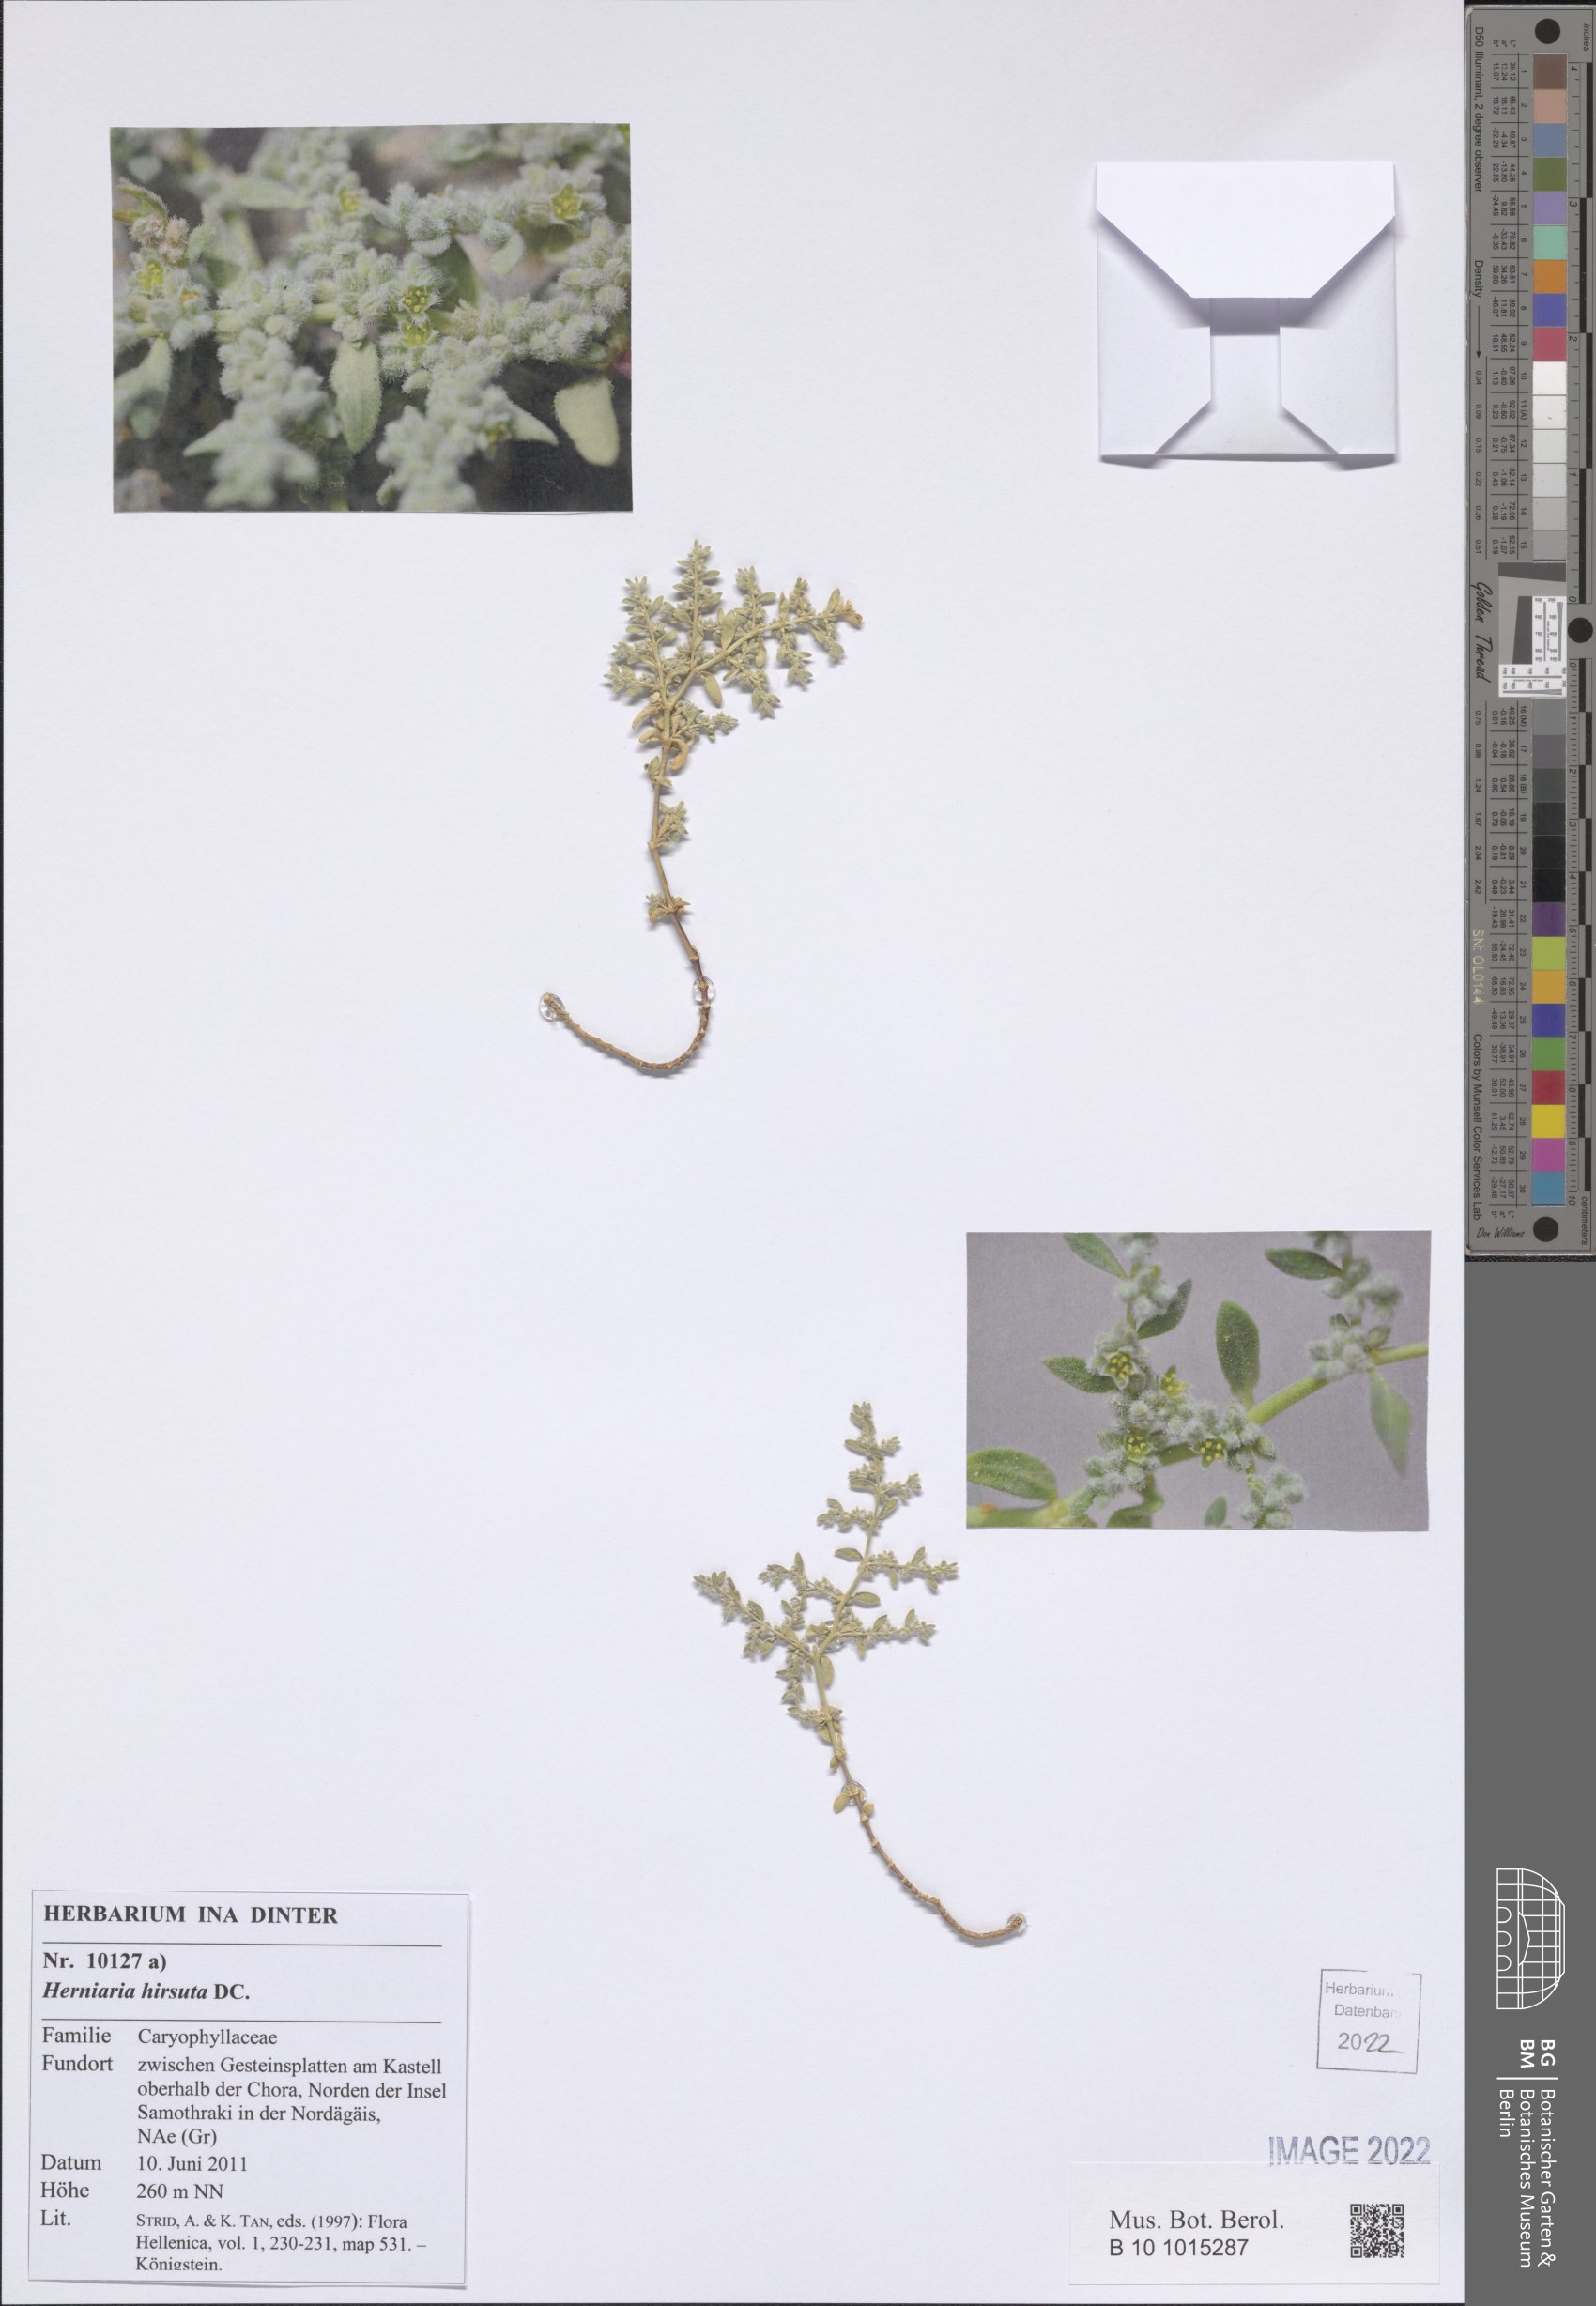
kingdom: Plantae
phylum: Tracheophyta
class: Magnoliopsida
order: Caryophyllales
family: Caryophyllaceae
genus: Herniaria
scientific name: Herniaria hirsuta
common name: Hairy rupturewort
